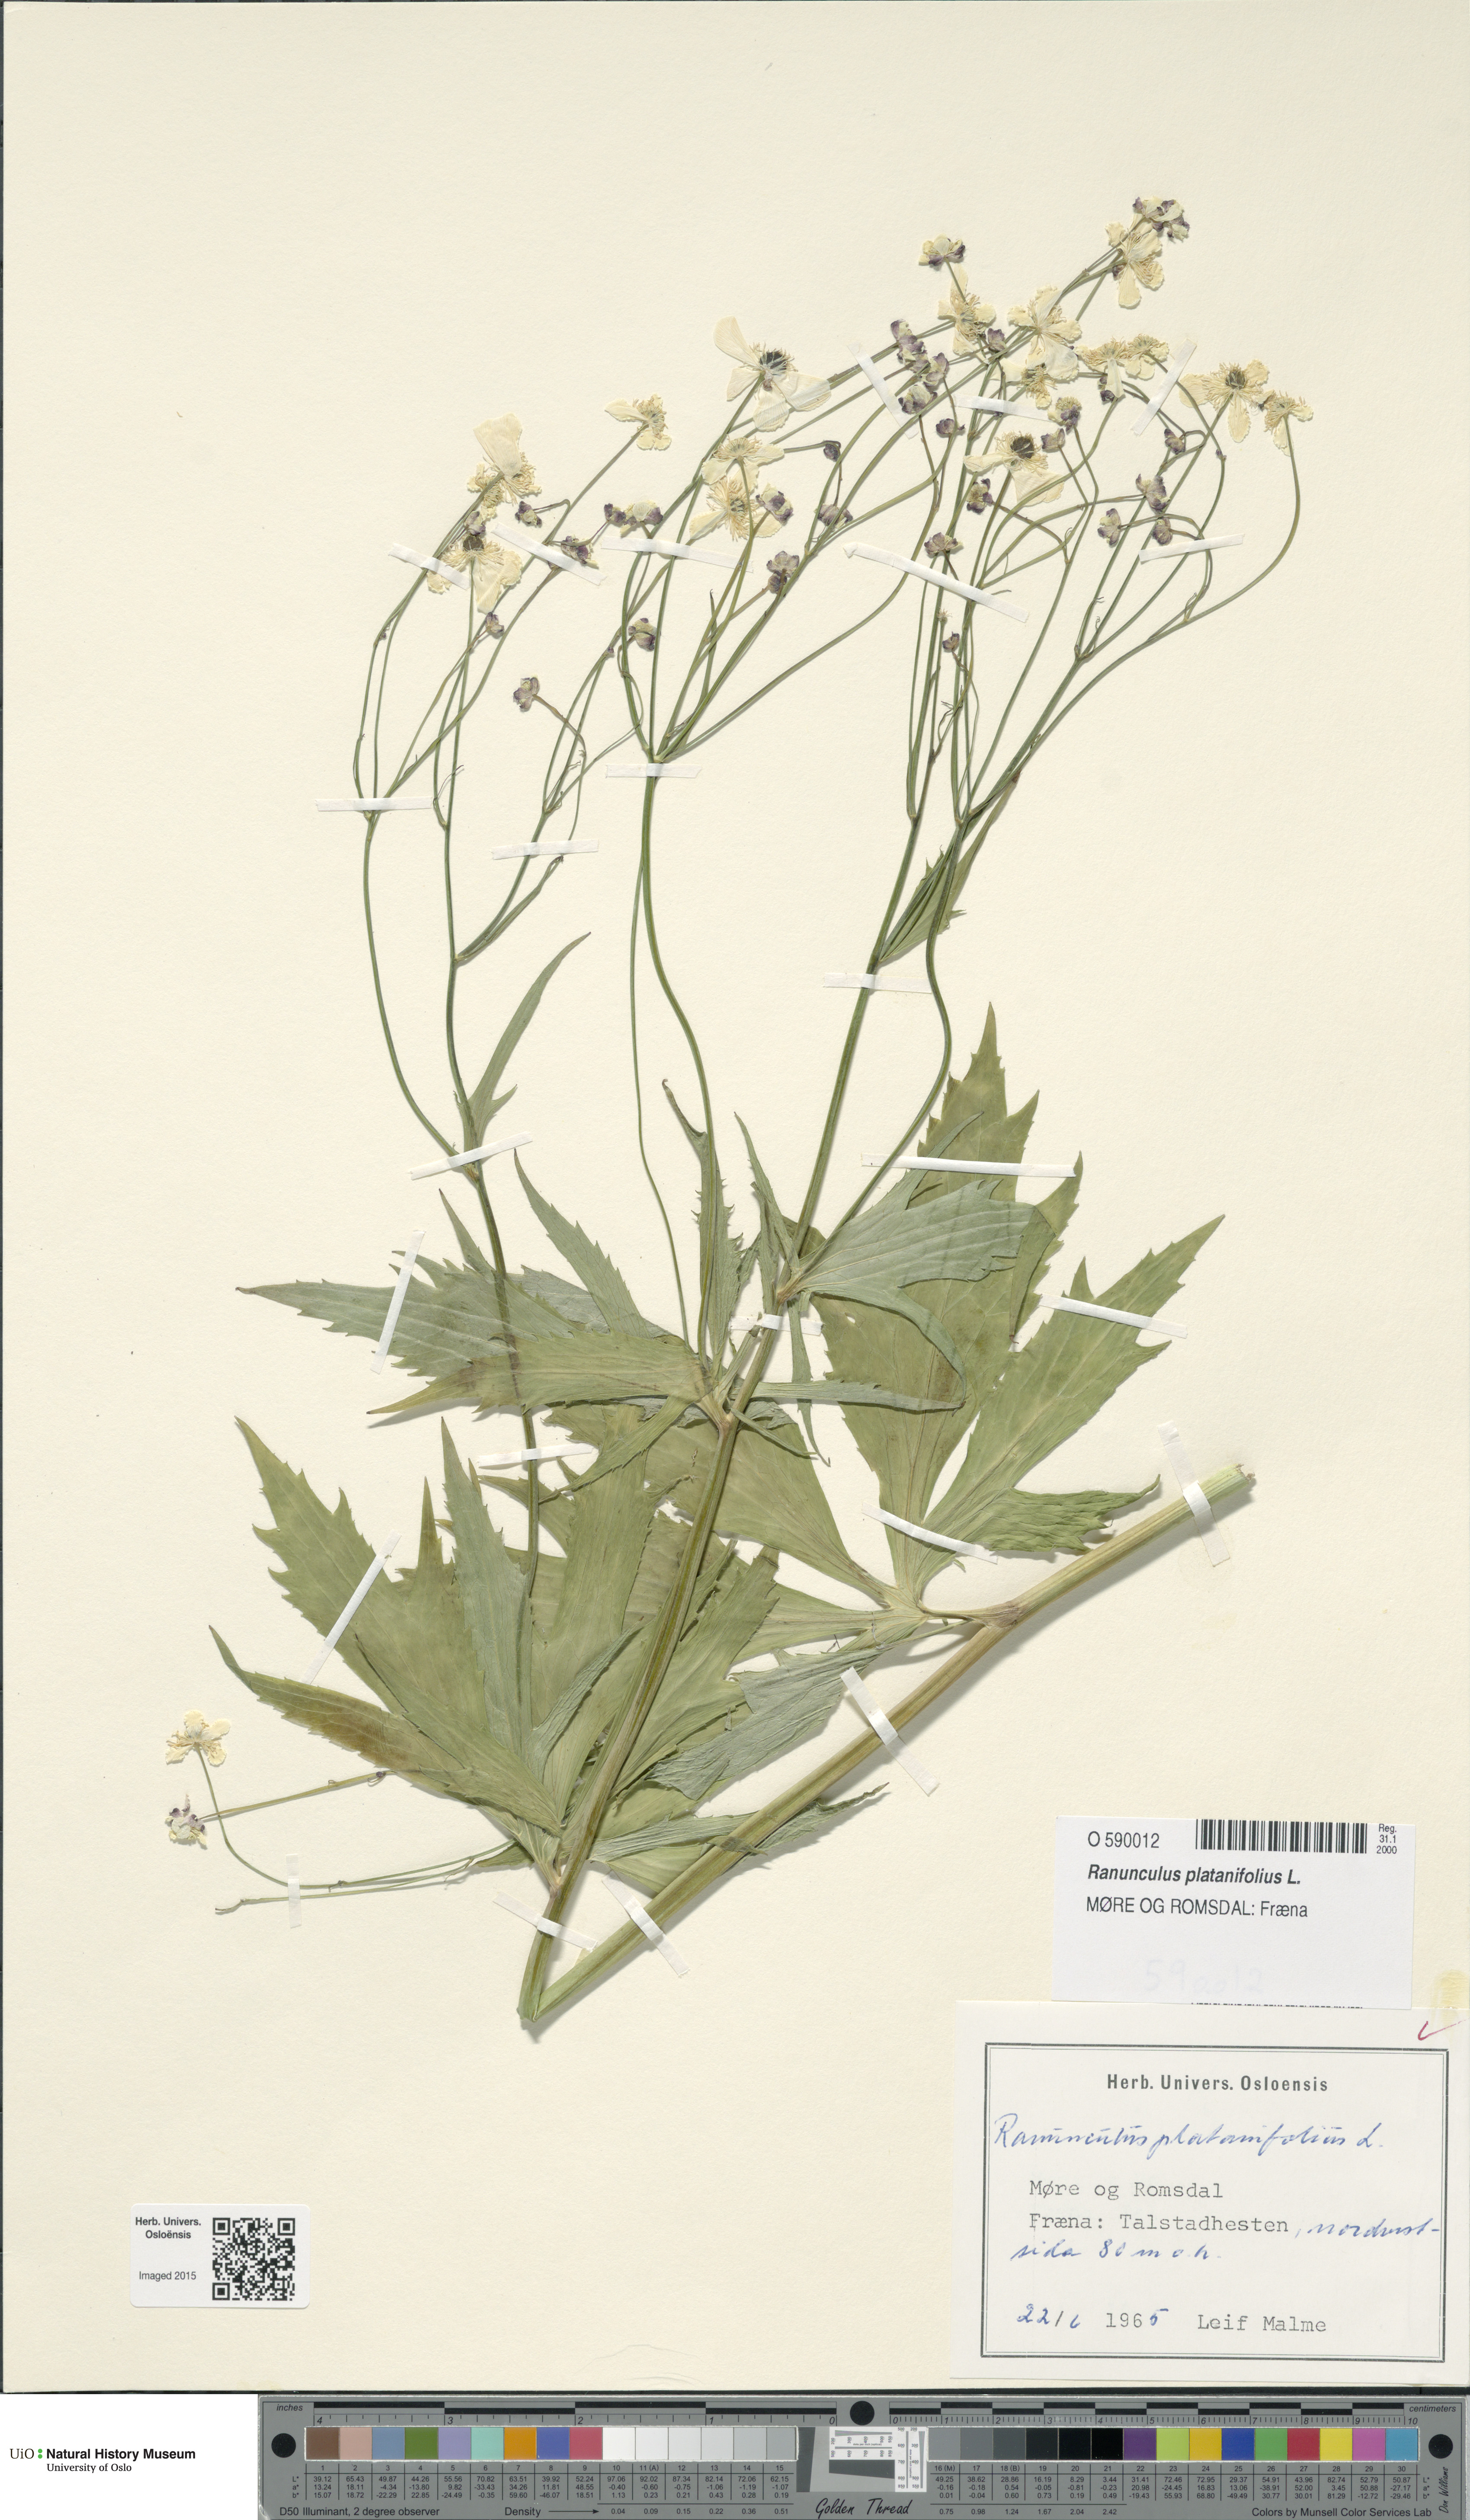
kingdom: Plantae
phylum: Tracheophyta
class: Magnoliopsida
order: Ranunculales
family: Ranunculaceae
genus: Ranunculus
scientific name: Ranunculus platanifolius
